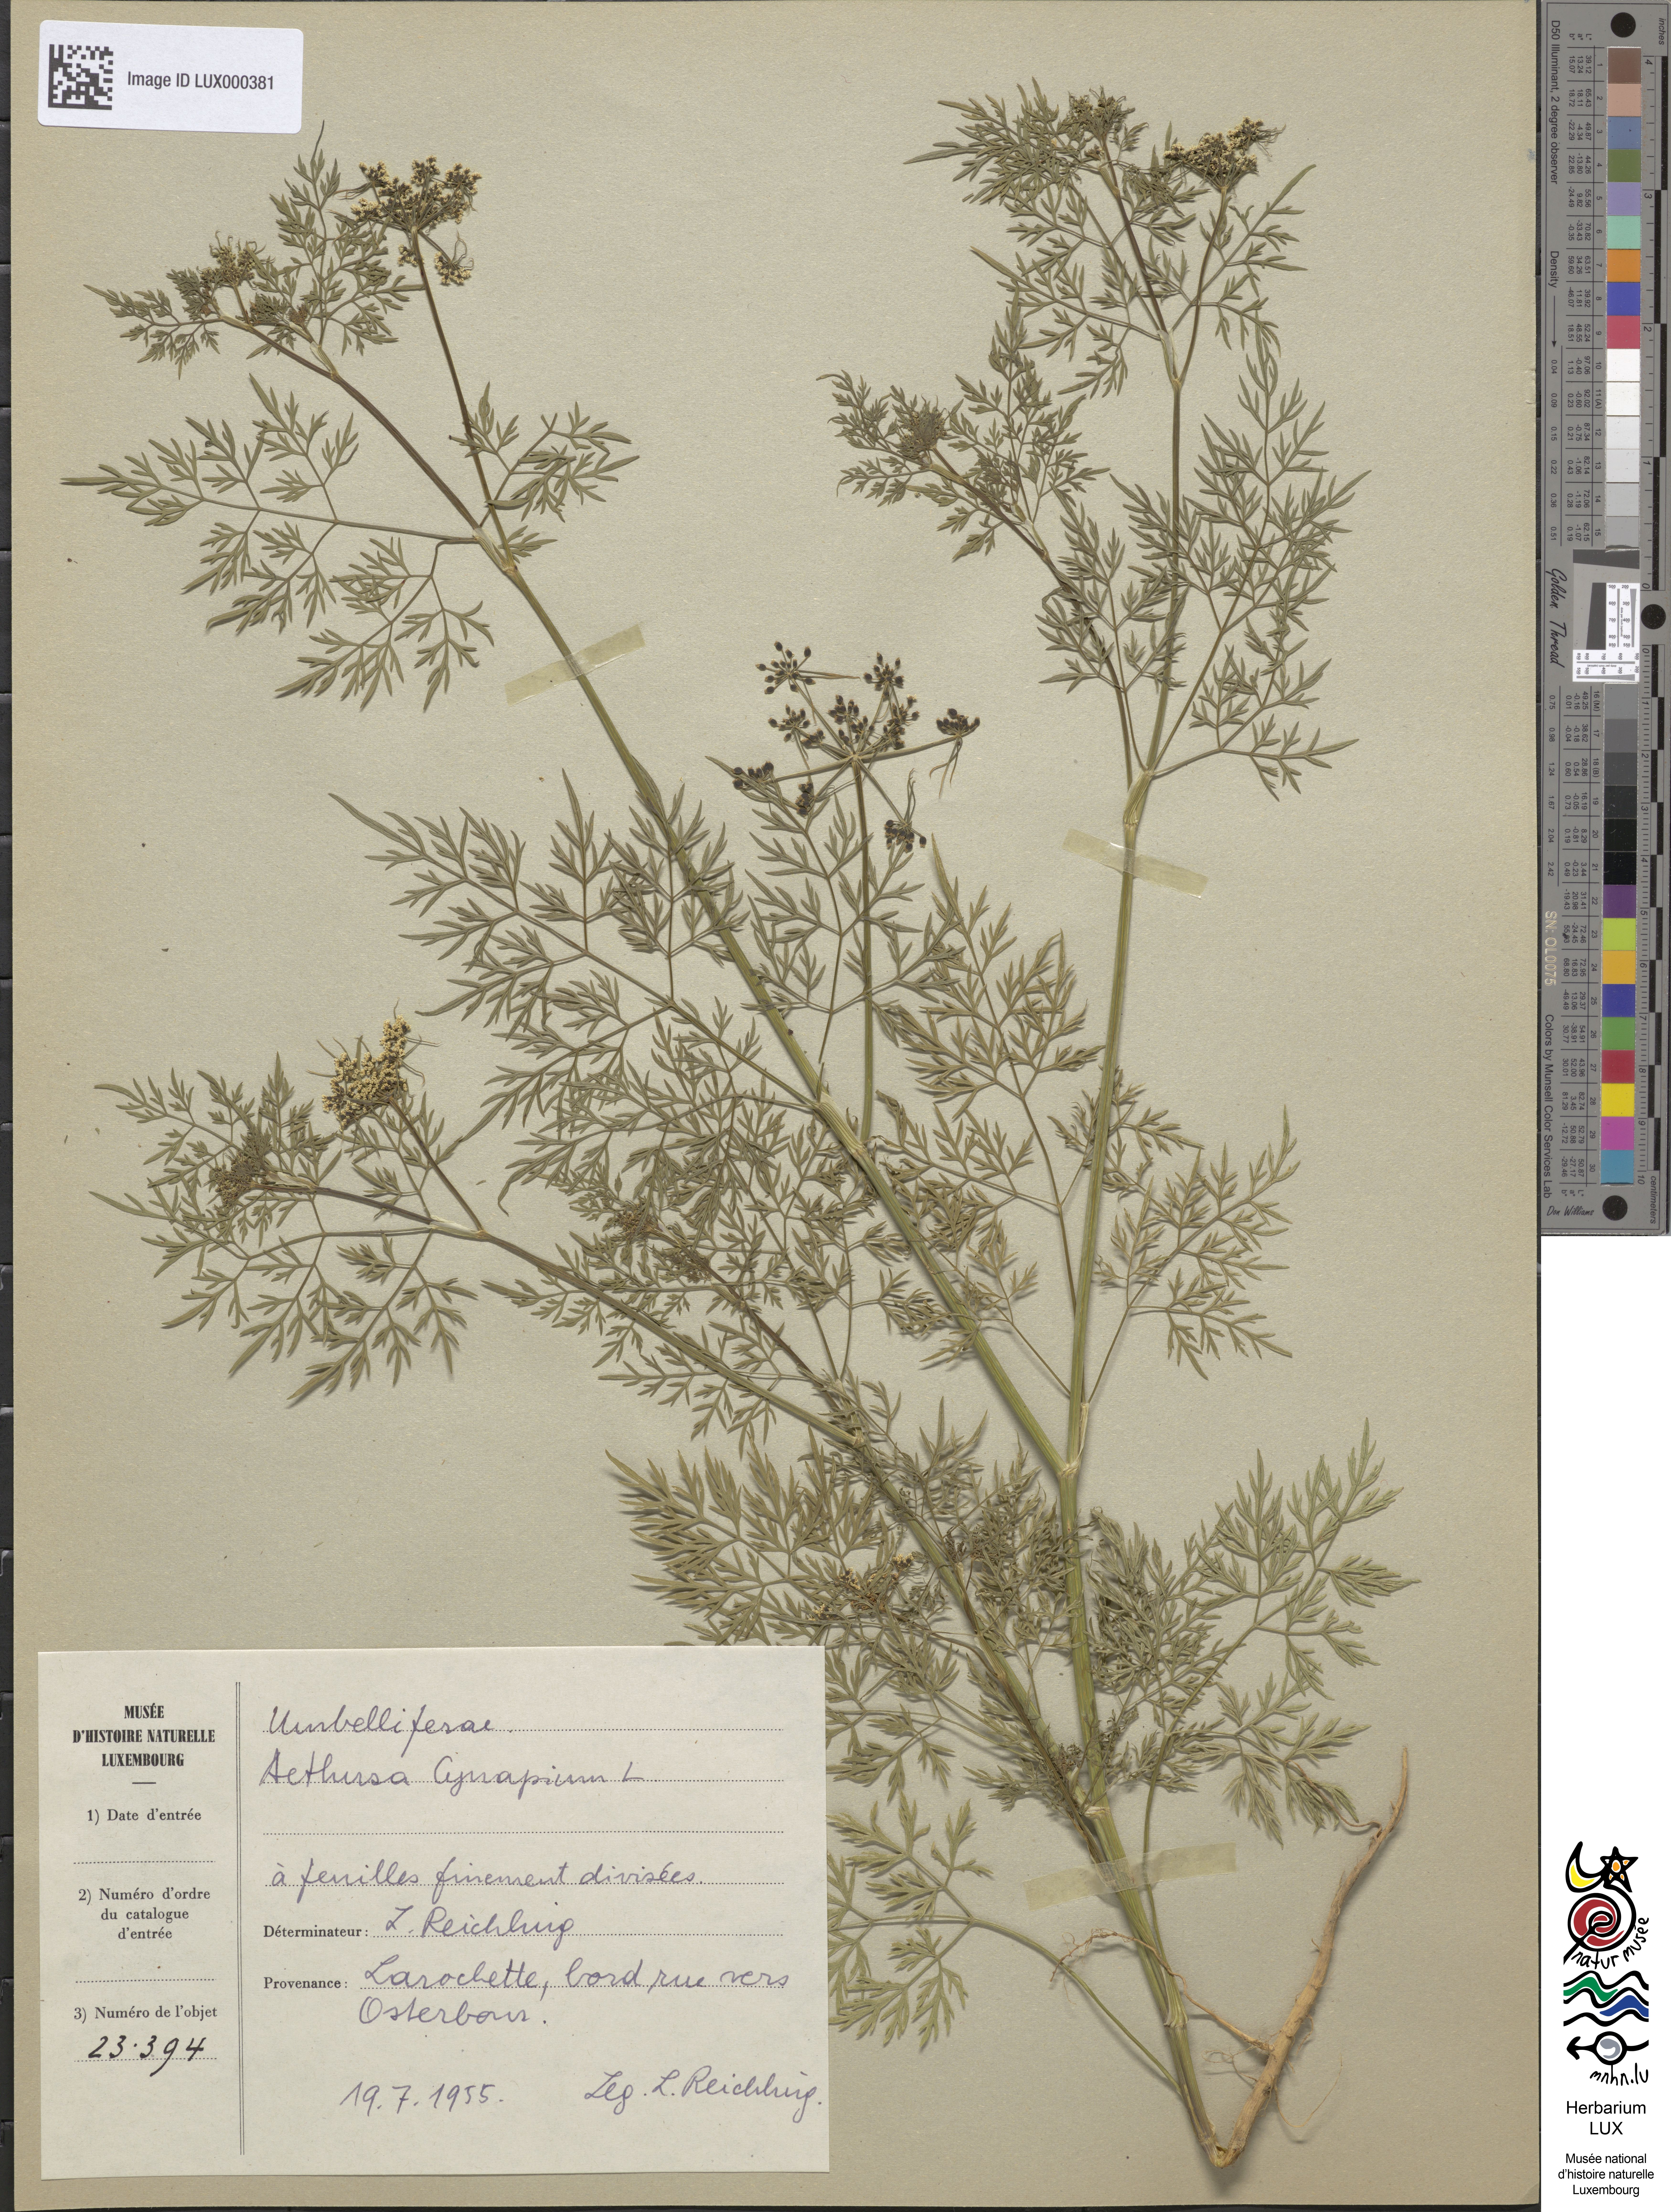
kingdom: Plantae
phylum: Tracheophyta
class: Magnoliopsida
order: Apiales
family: Apiaceae
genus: Aethusa
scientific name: Aethusa cynapium
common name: Fool's parsley
